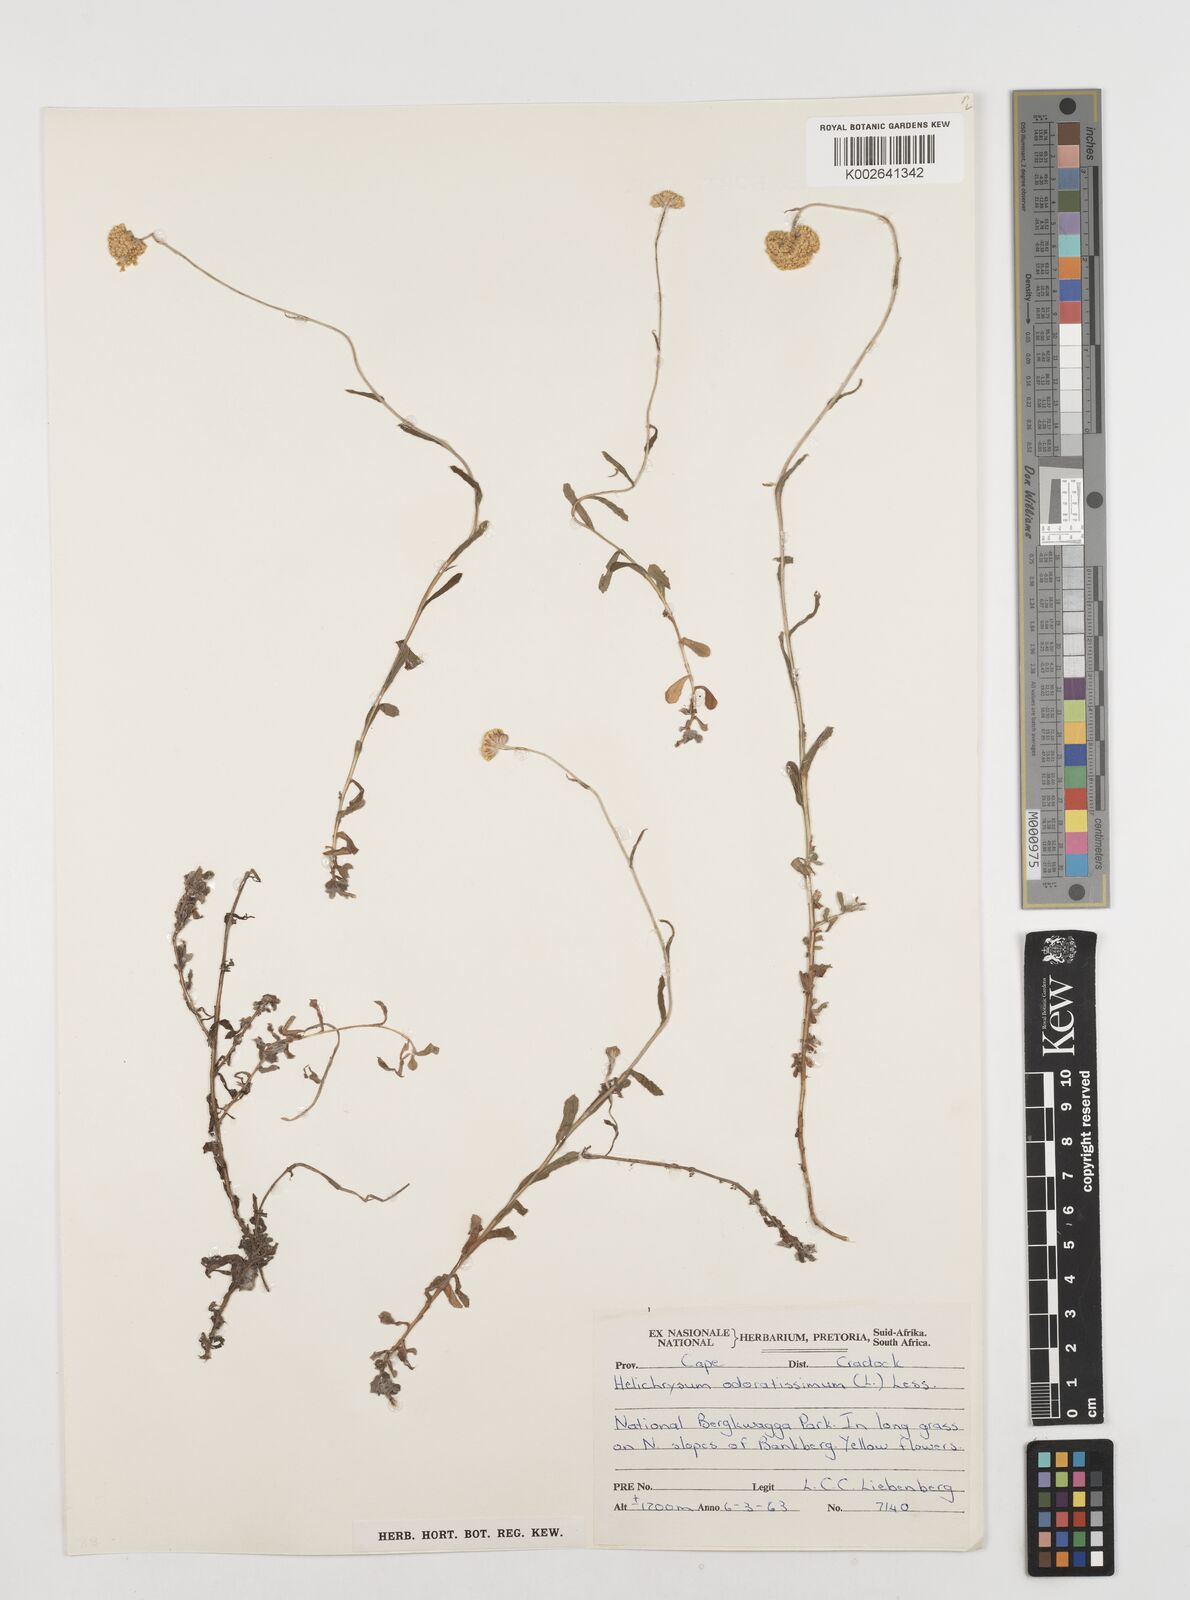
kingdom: Plantae
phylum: Tracheophyta
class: Magnoliopsida
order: Asterales
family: Asteraceae
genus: Helichrysum
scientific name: Helichrysum odoratissimum
